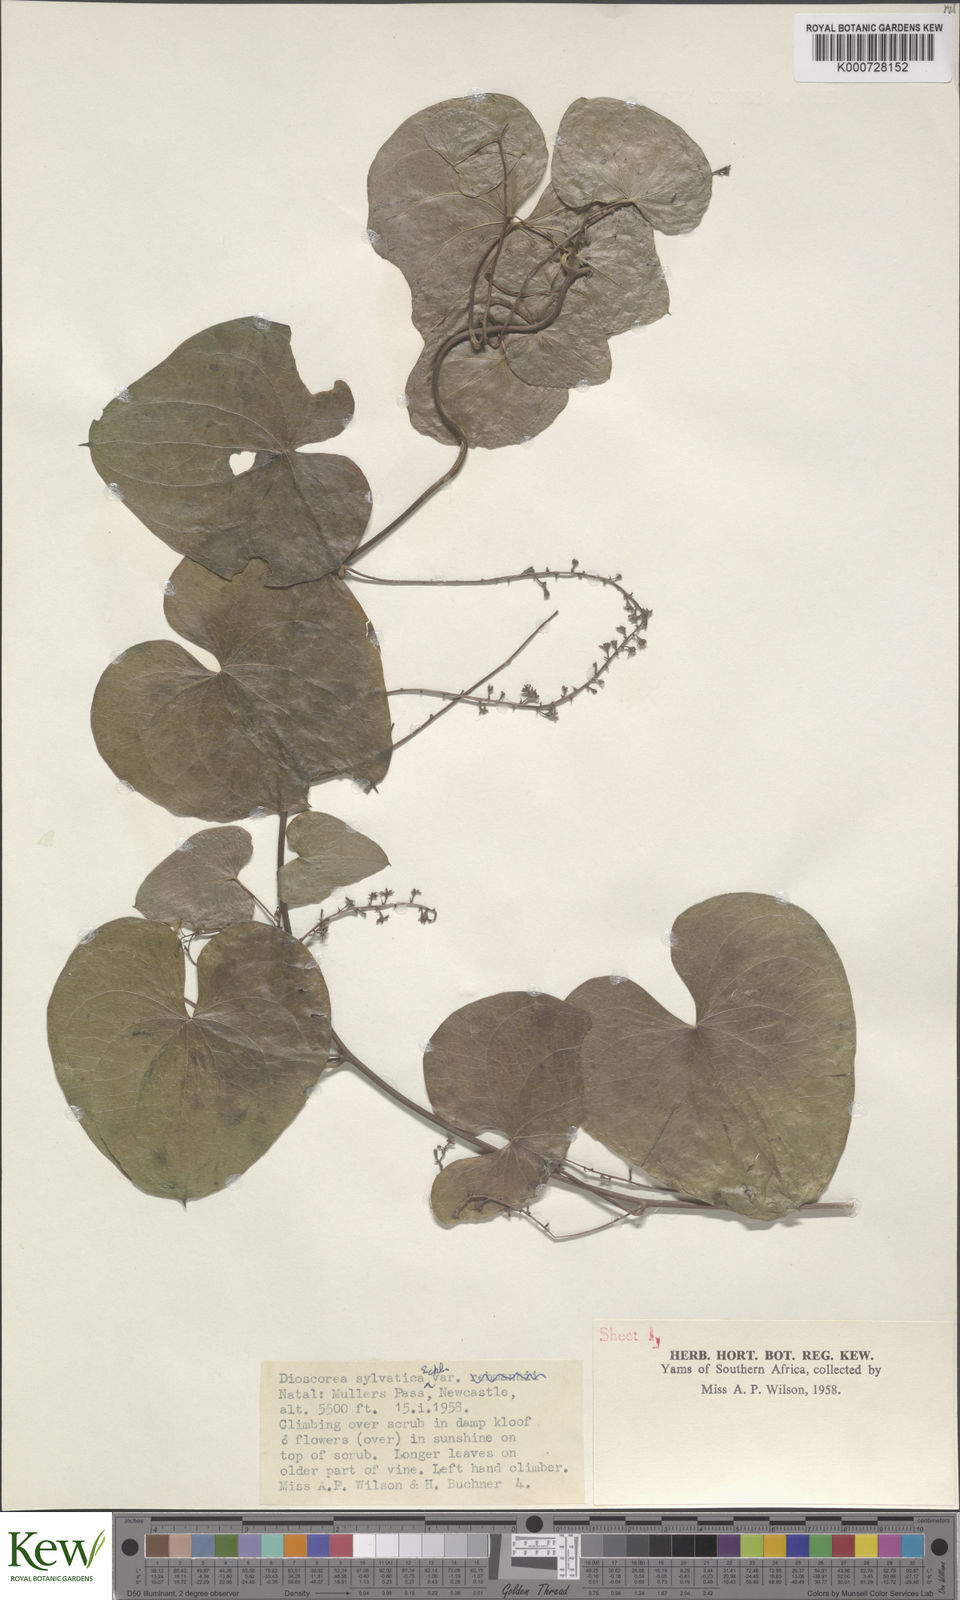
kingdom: Plantae
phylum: Tracheophyta
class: Liliopsida
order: Dioscoreales
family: Dioscoreaceae
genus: Dioscorea
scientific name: Dioscorea sylvatica
